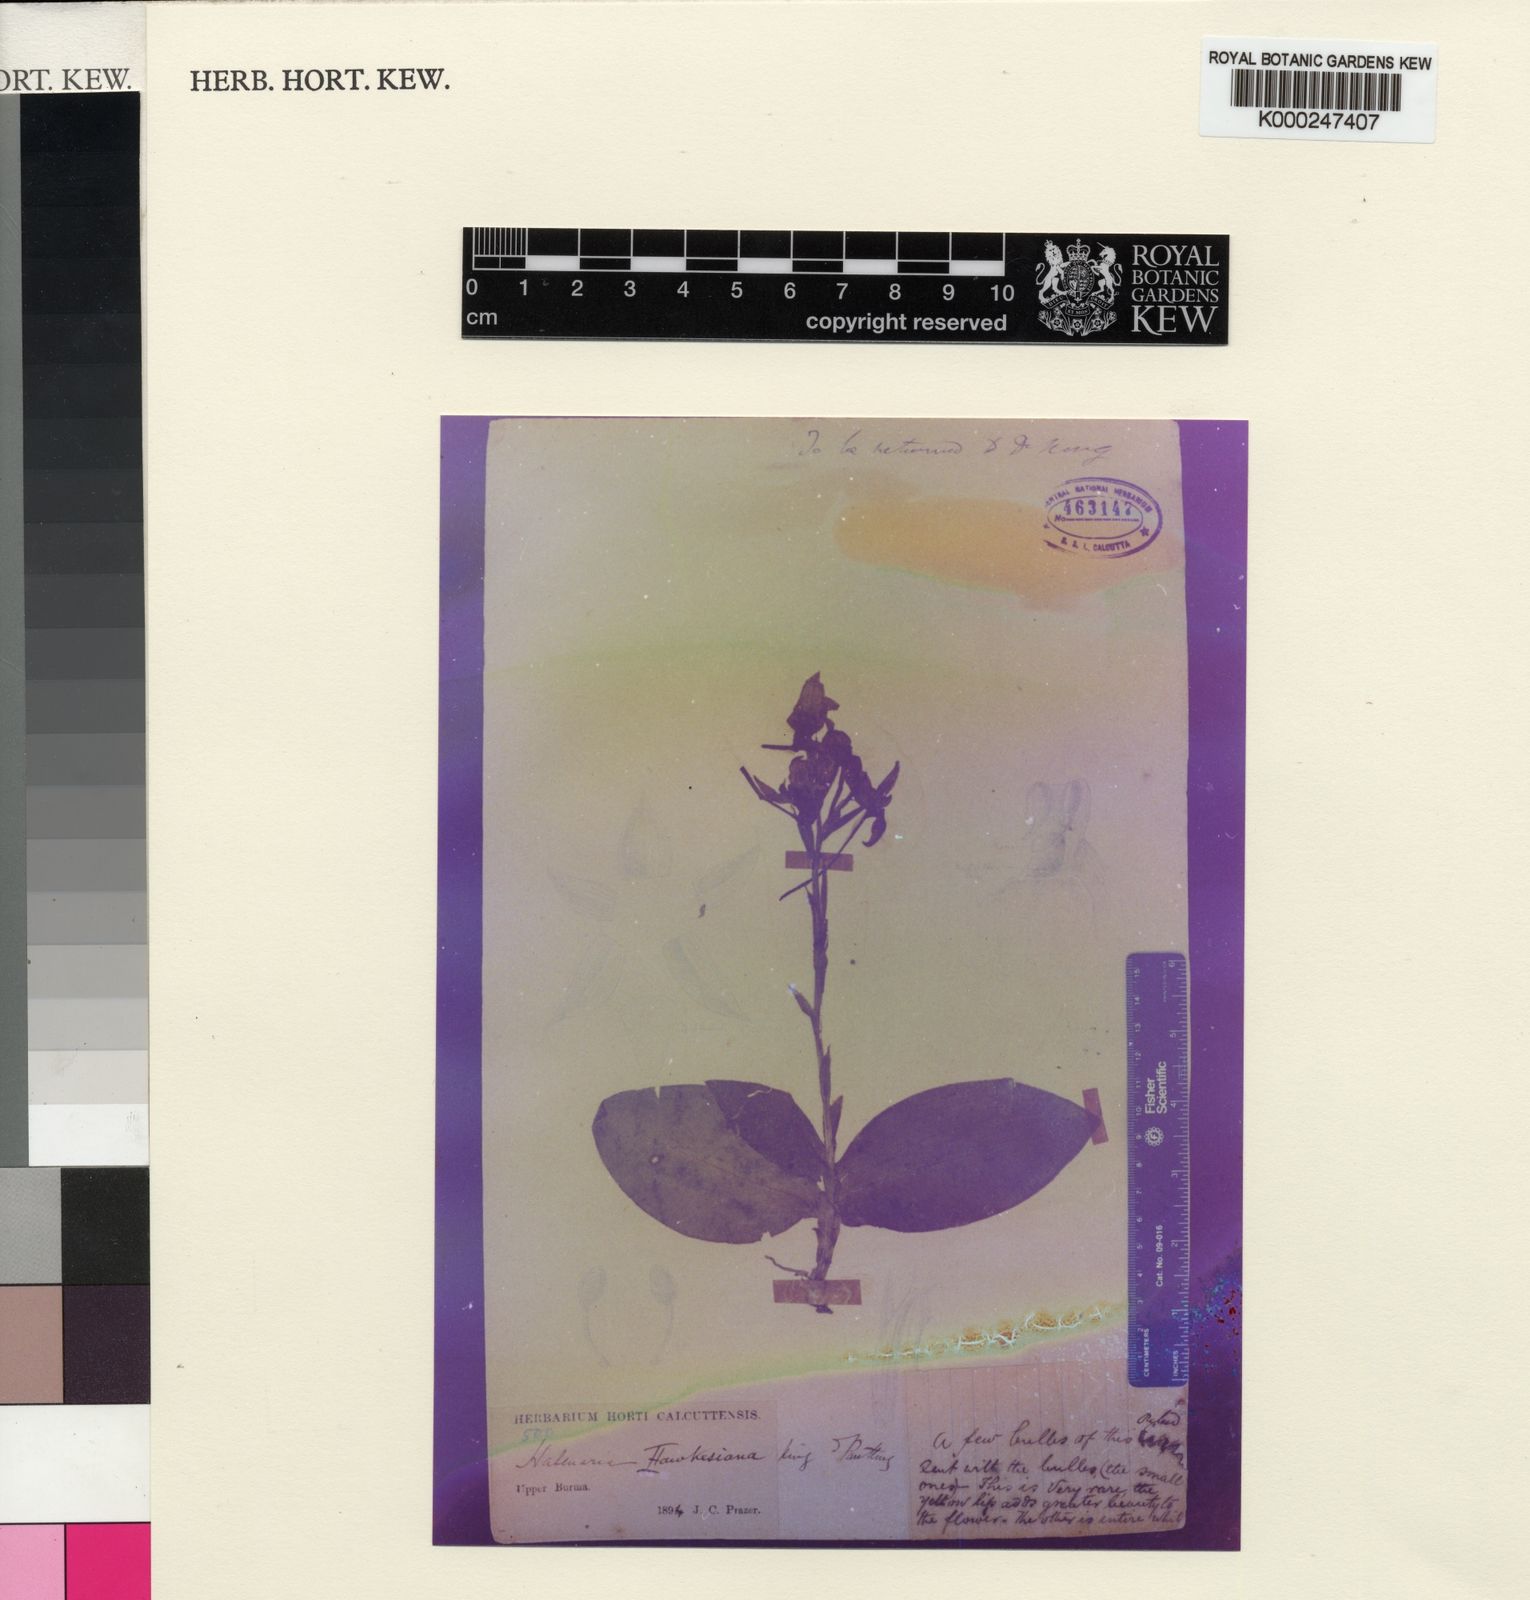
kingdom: Plantae
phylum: Tracheophyta
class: Liliopsida
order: Asparagales
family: Orchidaceae
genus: Pecteilis
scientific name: Pecteilis hawkesiana
